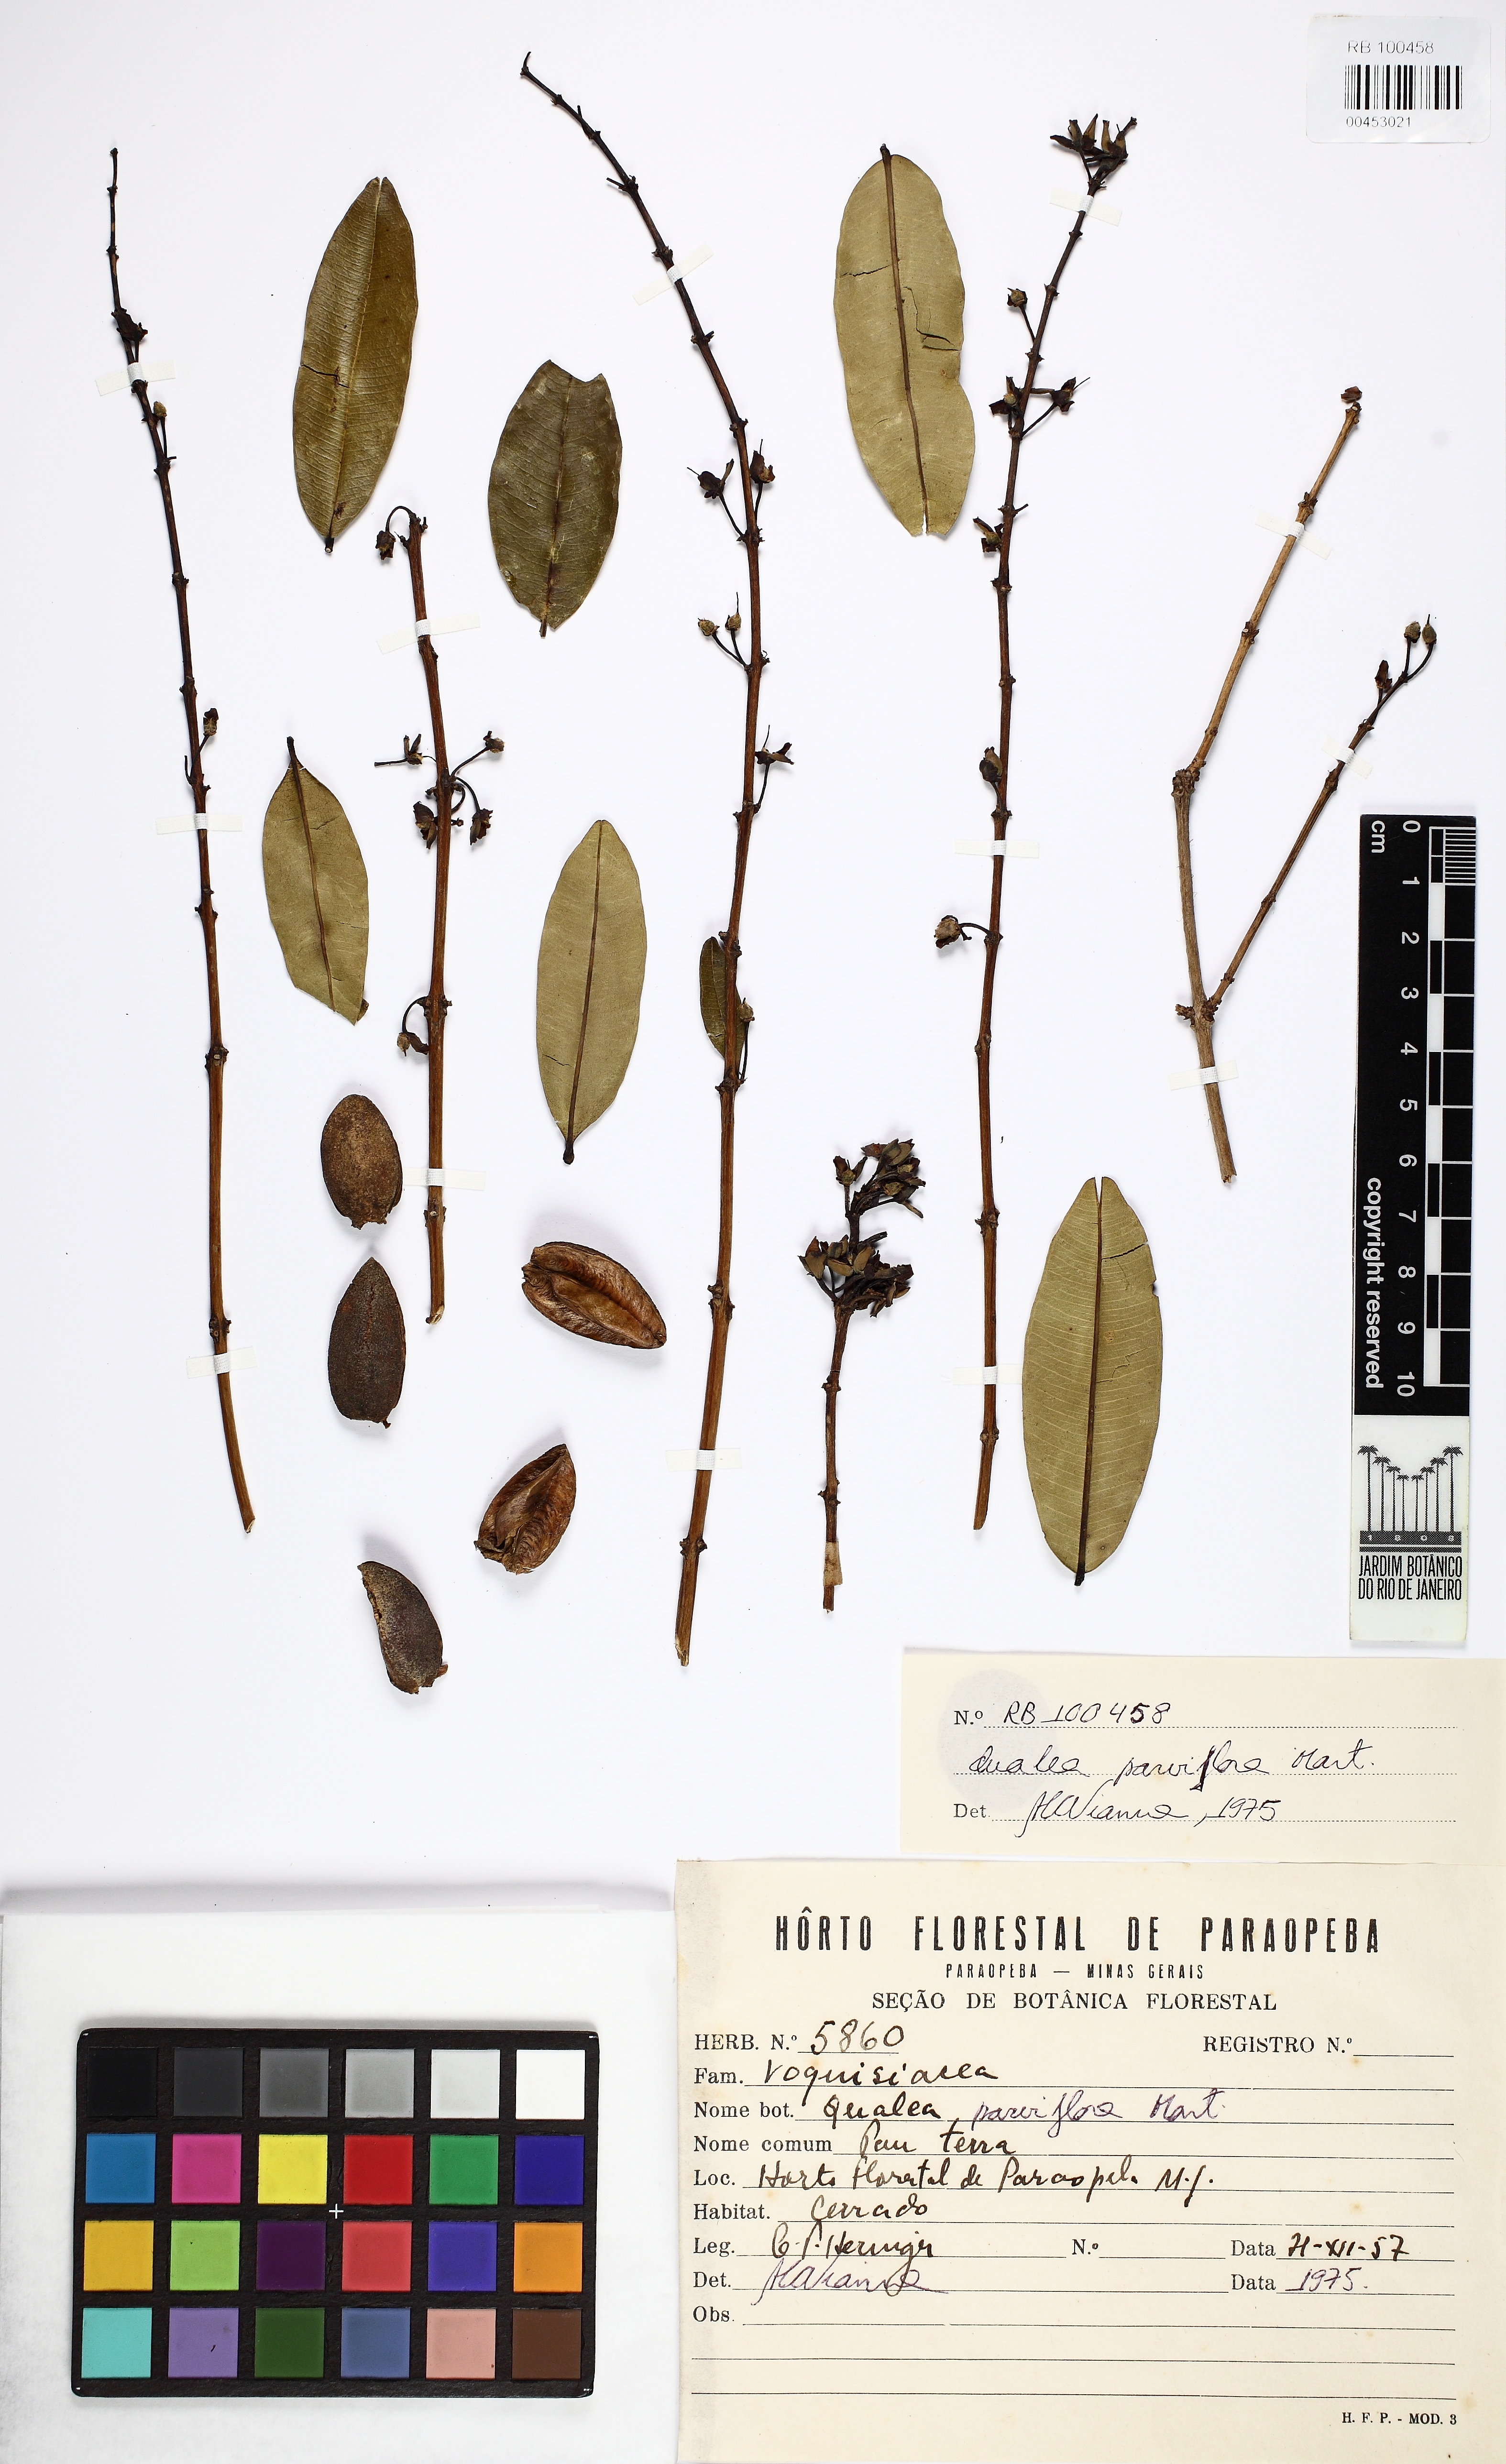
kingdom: Plantae
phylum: Tracheophyta
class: Magnoliopsida
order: Myrtales
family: Vochysiaceae
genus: Qualea
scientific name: Qualea parviflora
